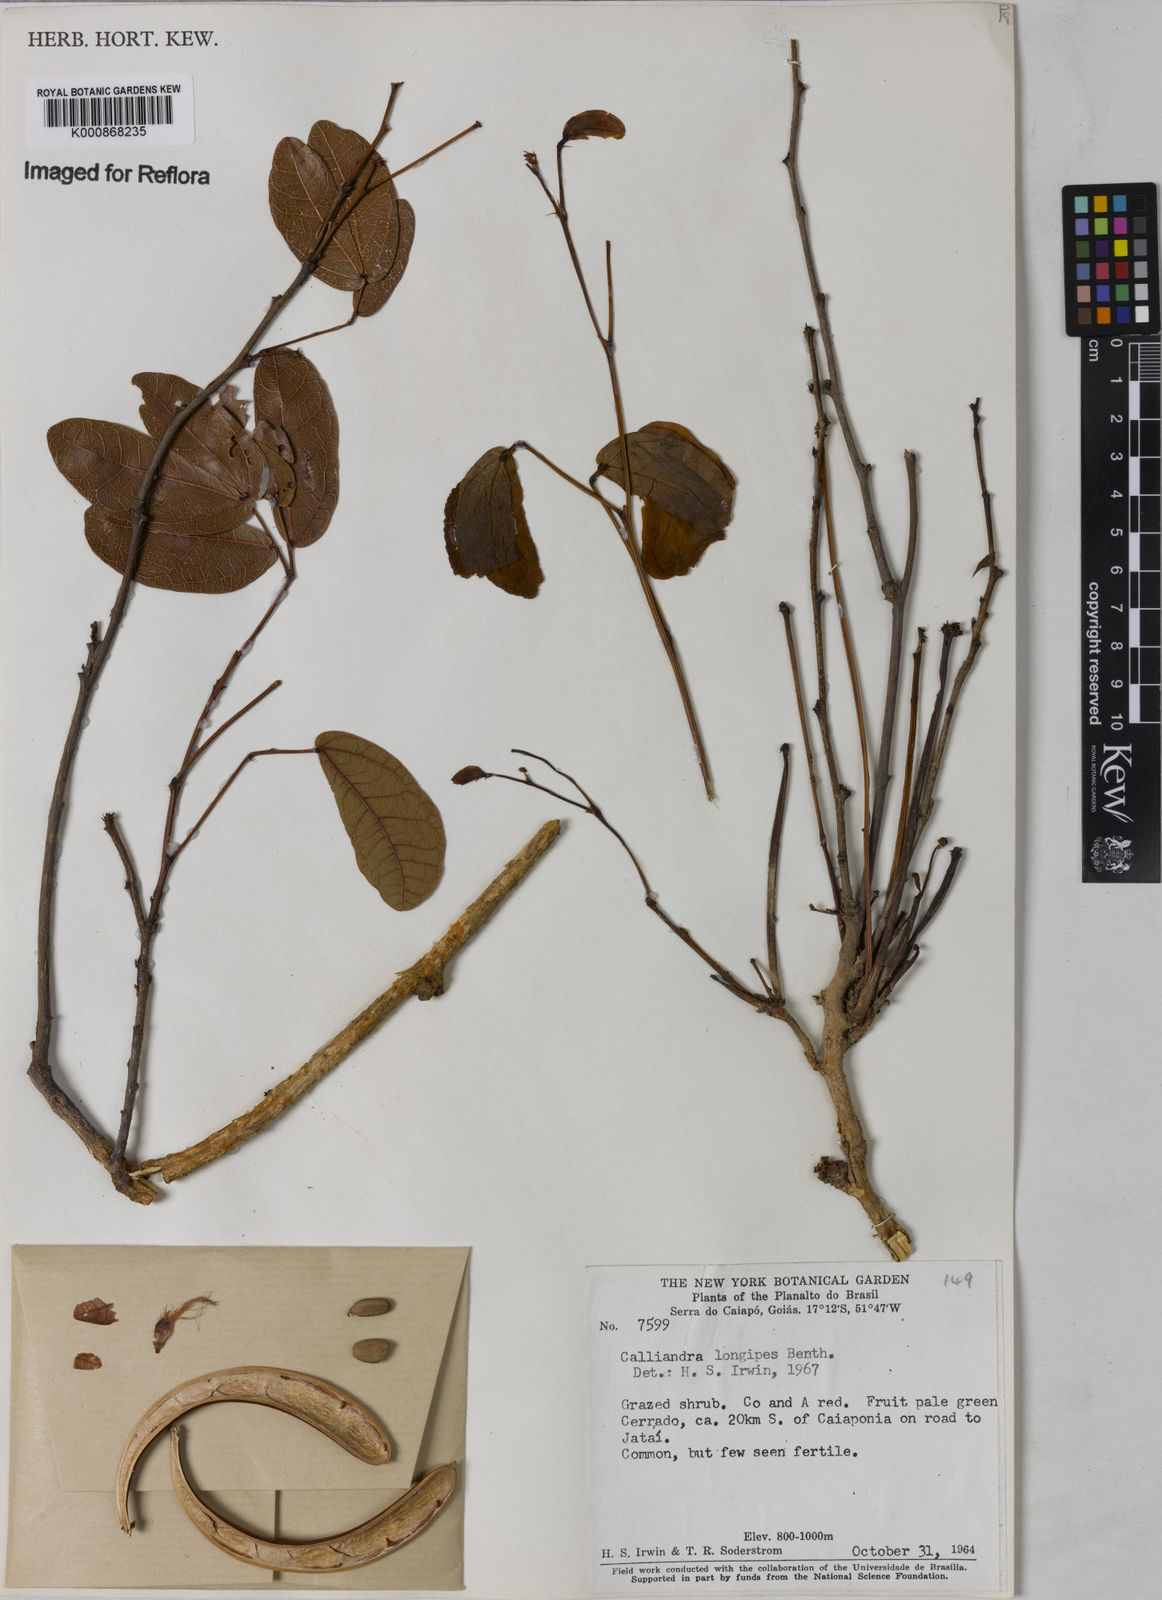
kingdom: Plantae
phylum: Tracheophyta
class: Magnoliopsida
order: Fabales
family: Fabaceae
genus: Calliandra
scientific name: Calliandra longipes
